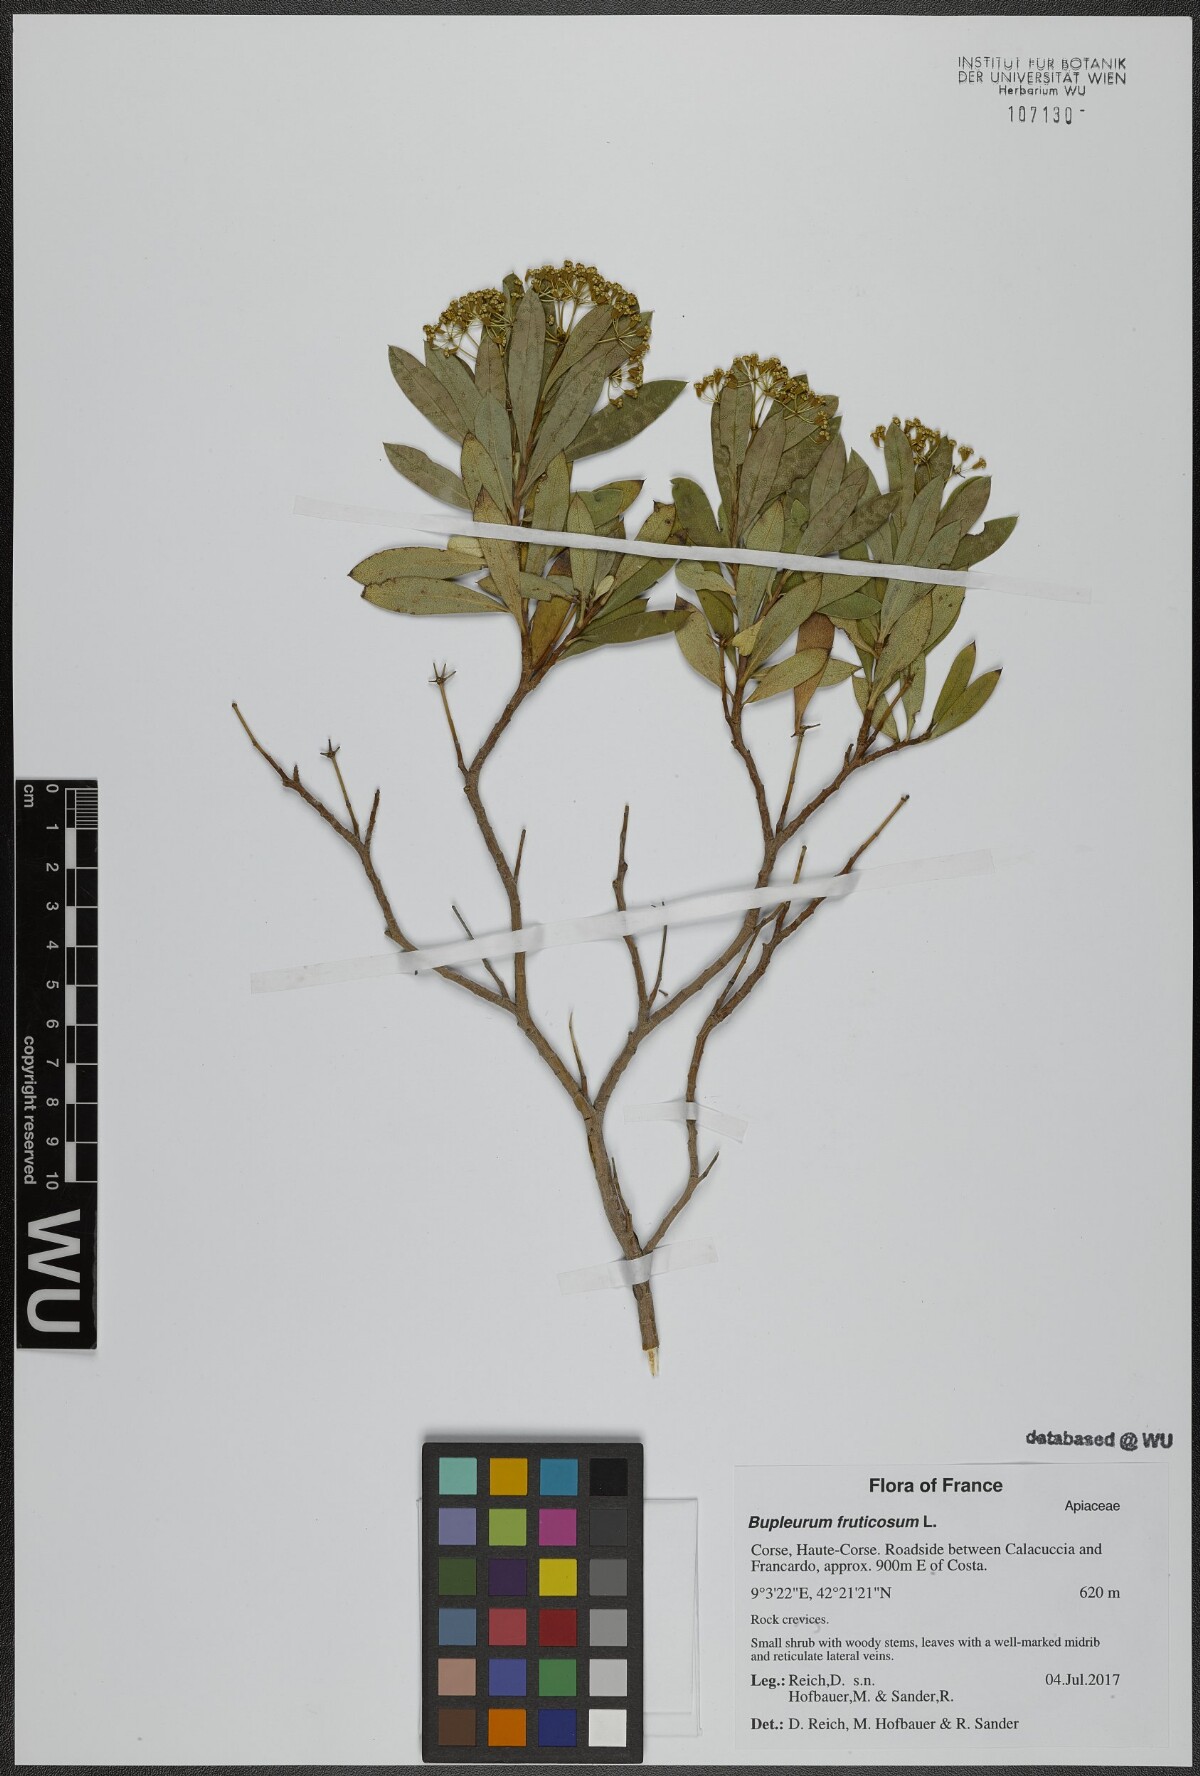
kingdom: Plantae
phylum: Tracheophyta
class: Magnoliopsida
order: Apiales
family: Apiaceae
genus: Bupleurum
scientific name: Bupleurum fruticosum
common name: Shrubby hare's-ear
